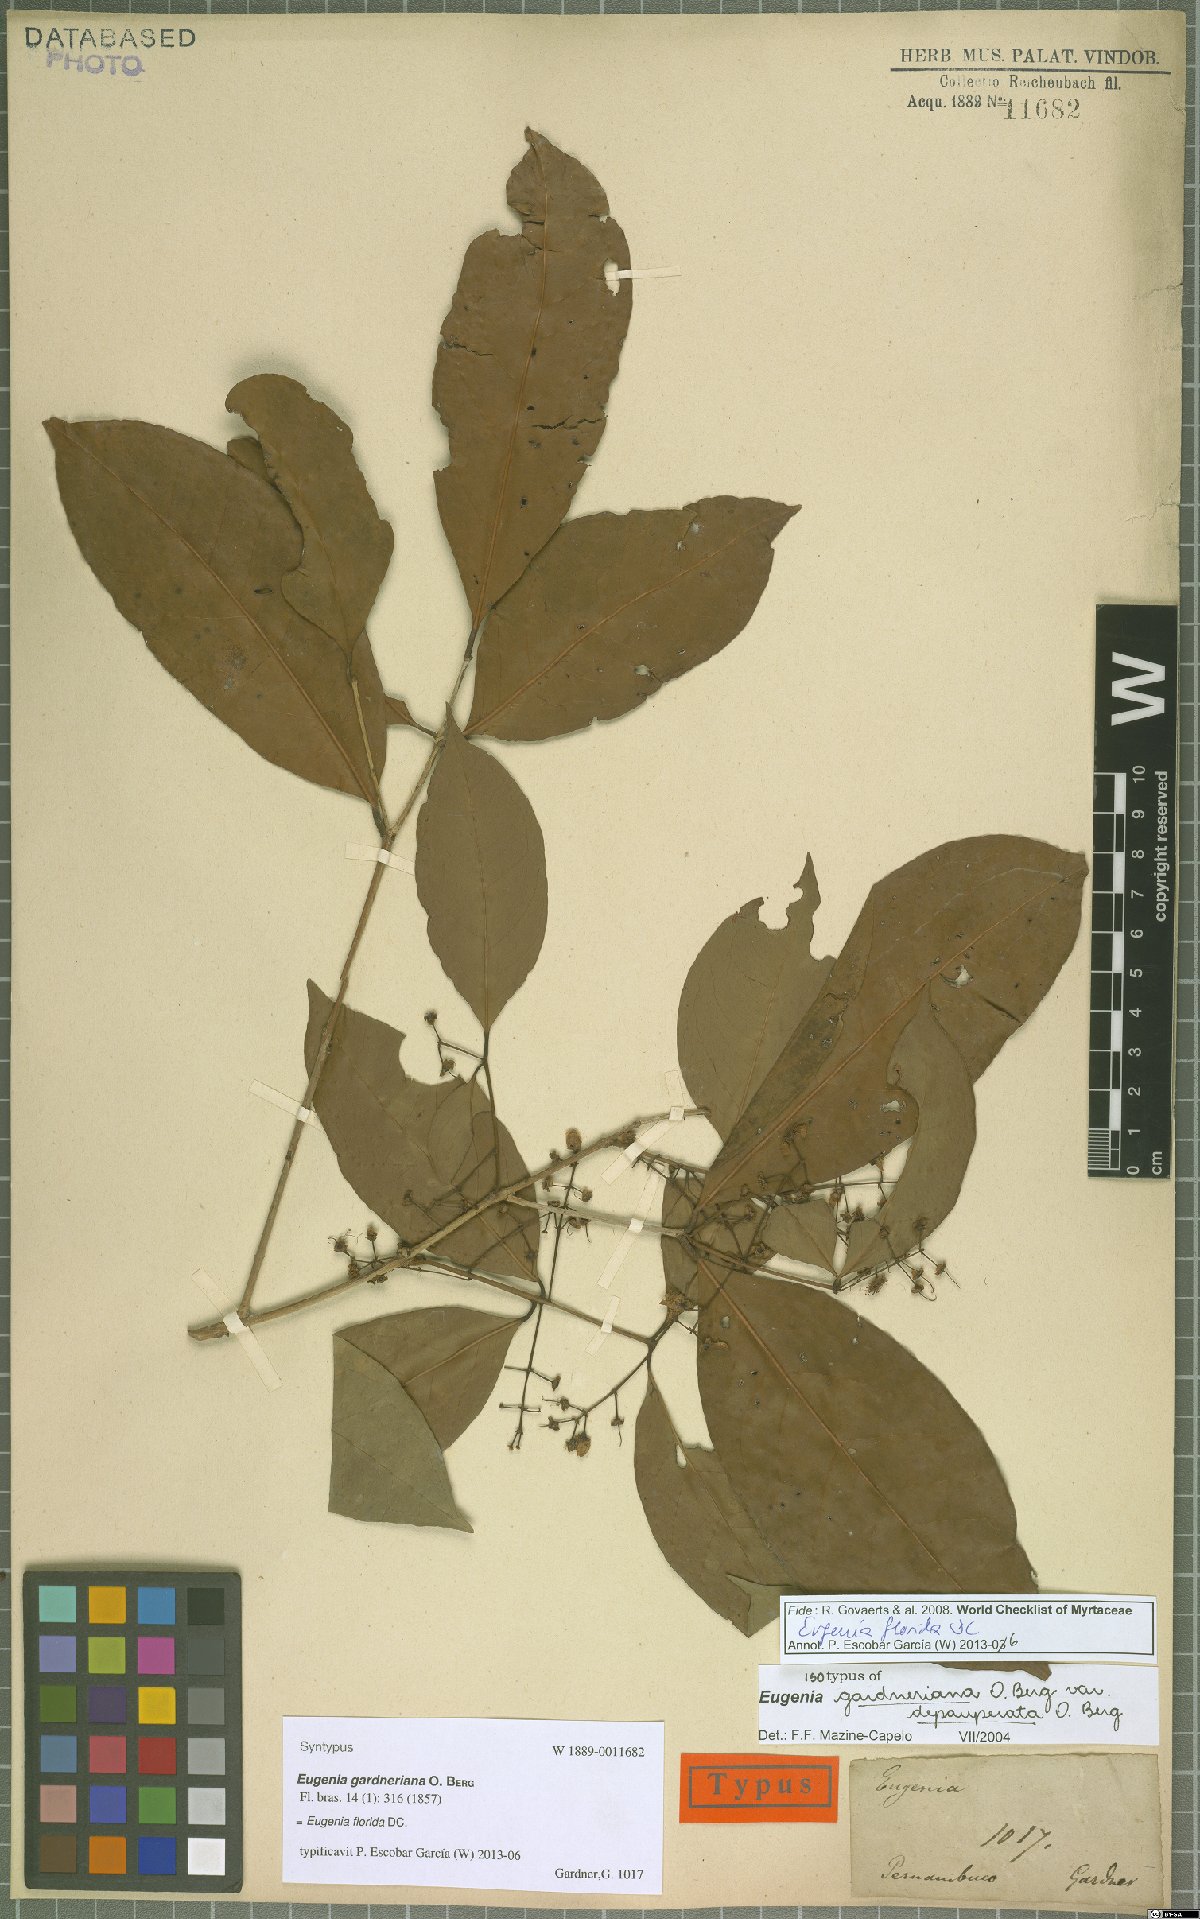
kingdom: Plantae
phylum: Tracheophyta
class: Magnoliopsida
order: Myrtales
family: Myrtaceae
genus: Eugenia
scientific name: Eugenia florida
